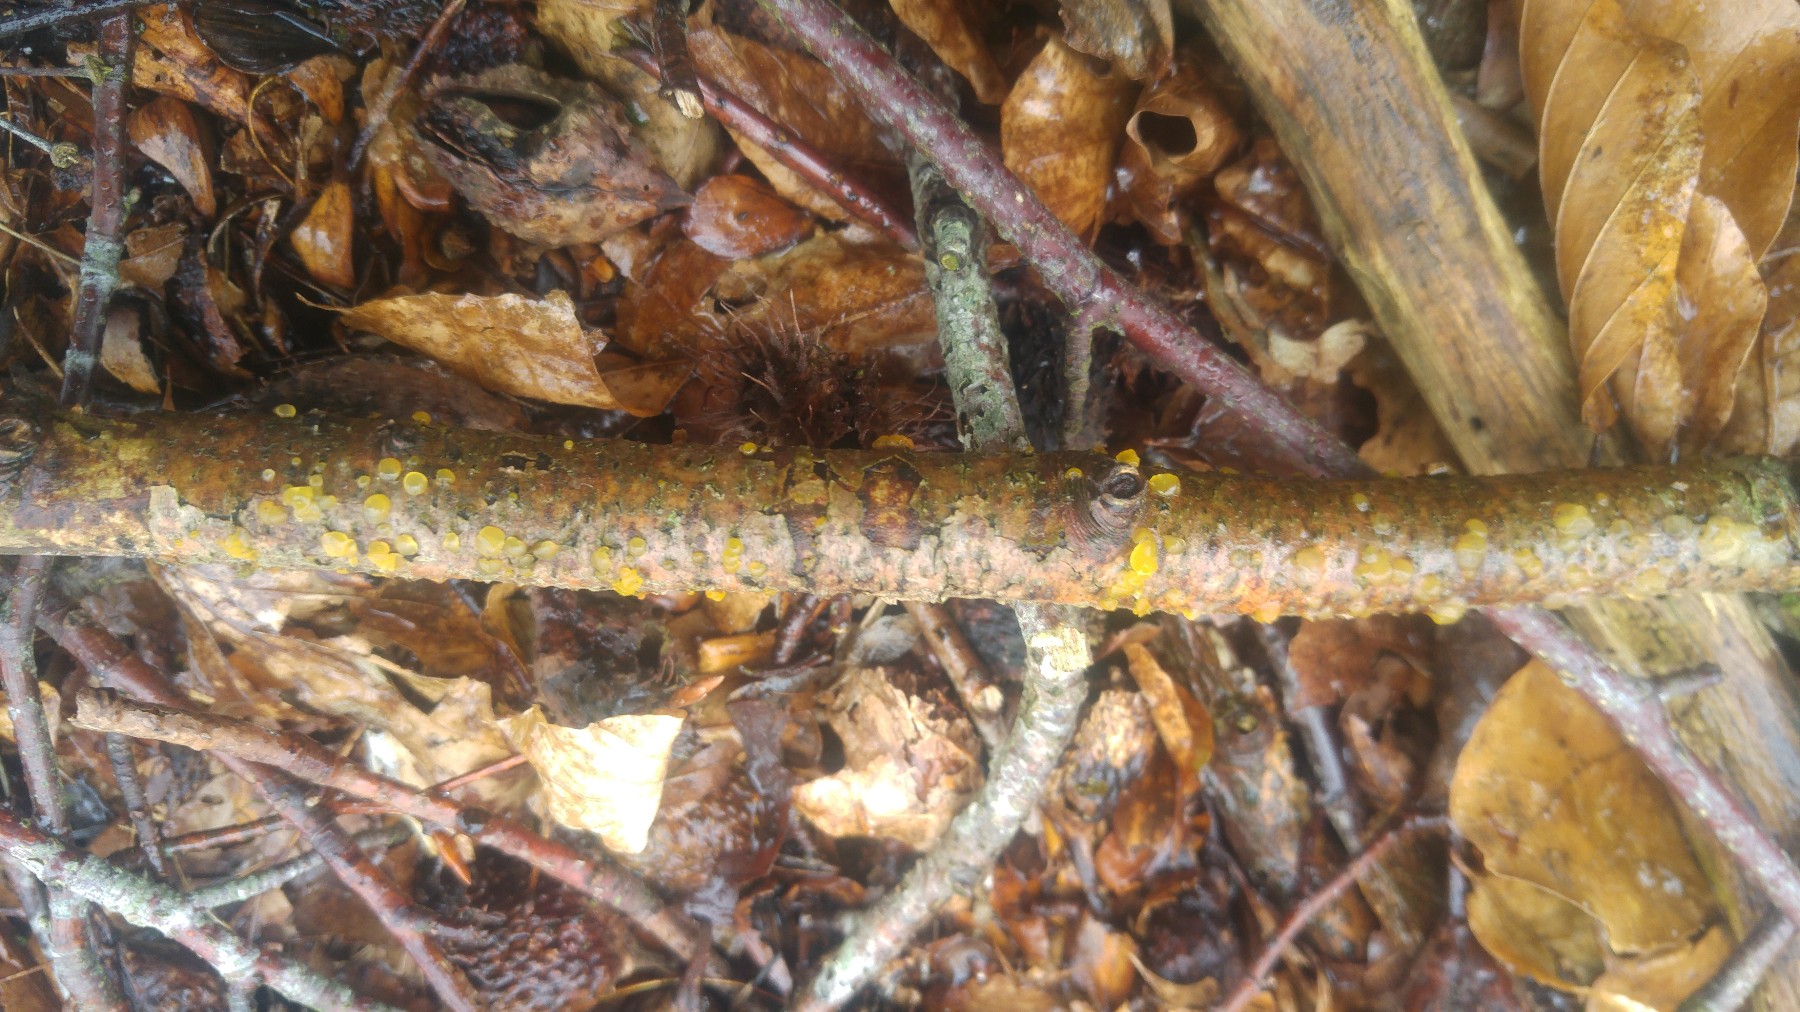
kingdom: Fungi
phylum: Basidiomycota
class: Dacrymycetes
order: Dacrymycetales
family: Dacrymycetaceae
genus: Dacrymyces
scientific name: Dacrymyces
